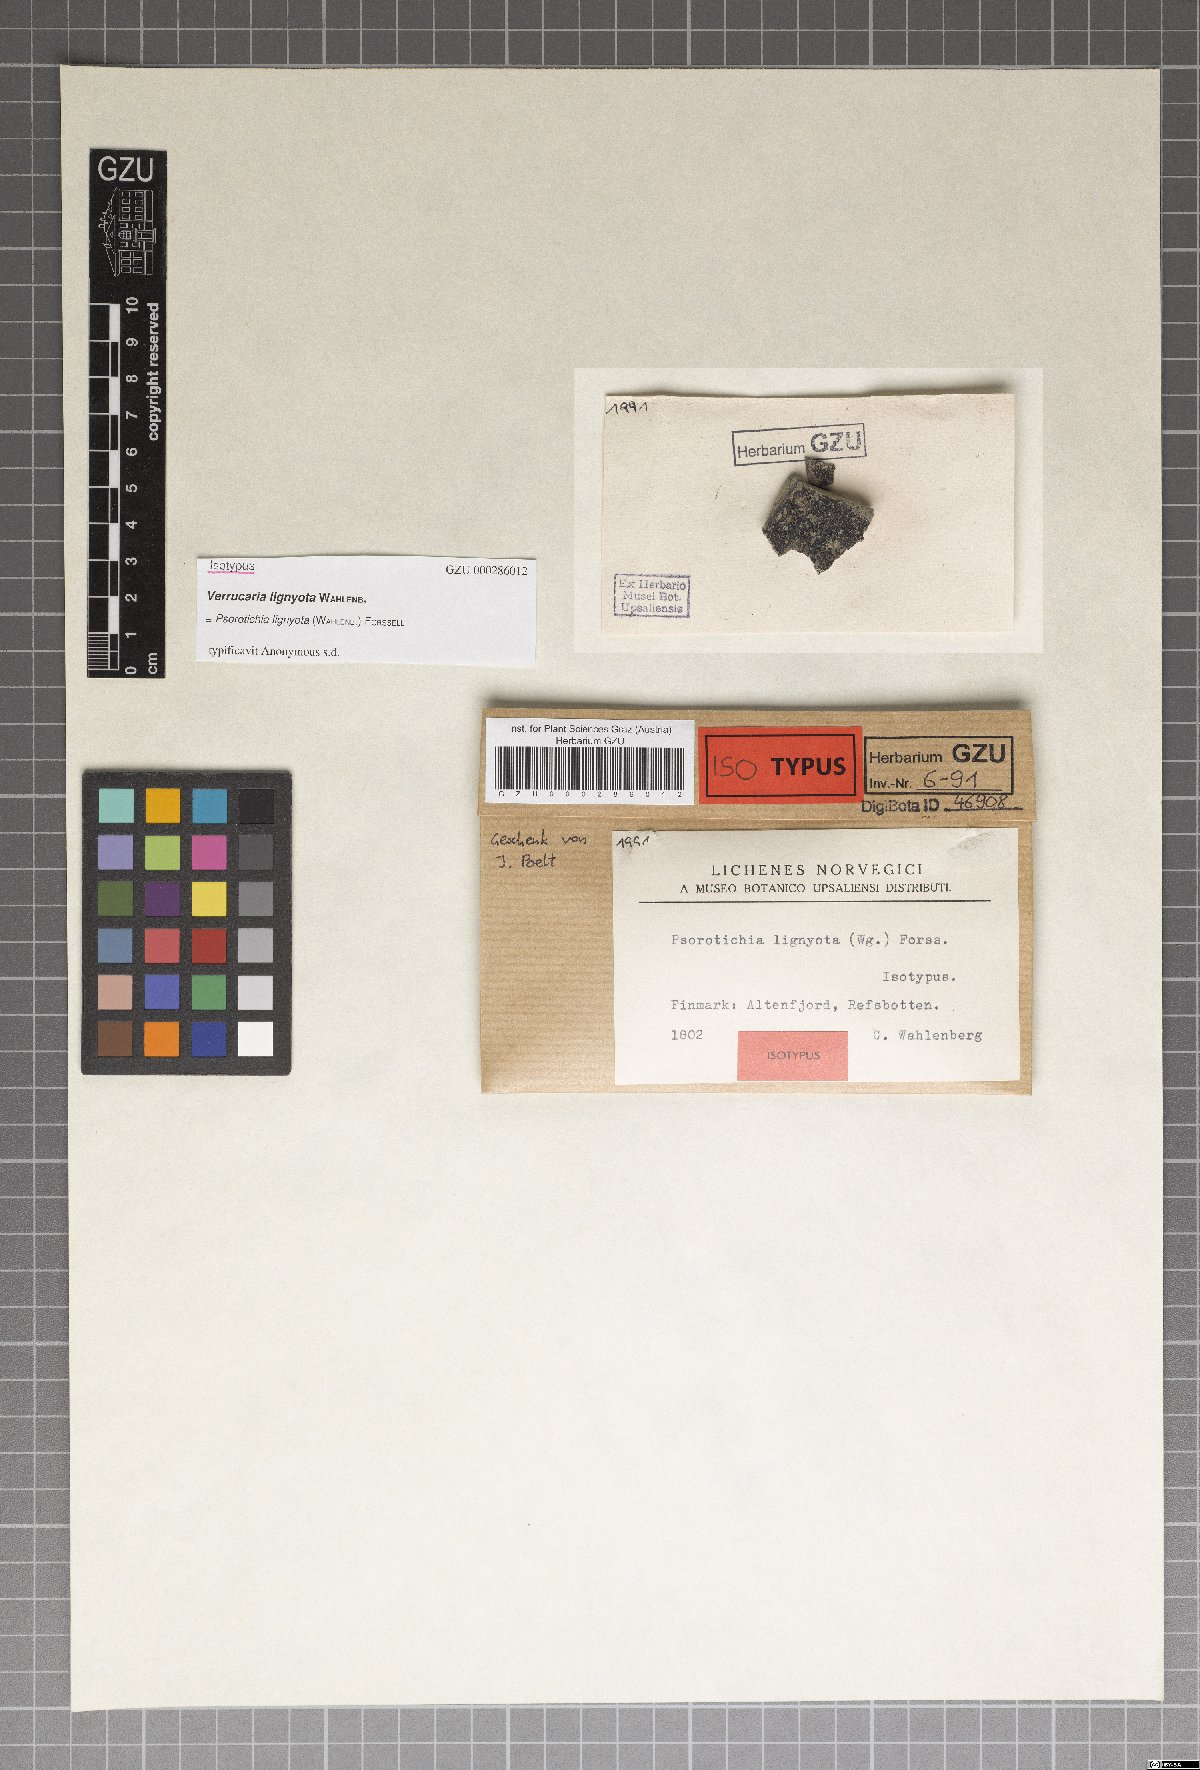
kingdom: Fungi
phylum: Ascomycota
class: Lichinomycetes
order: Lichinales
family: Lichinaceae
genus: Thelignya
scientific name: Thelignya lignyota
